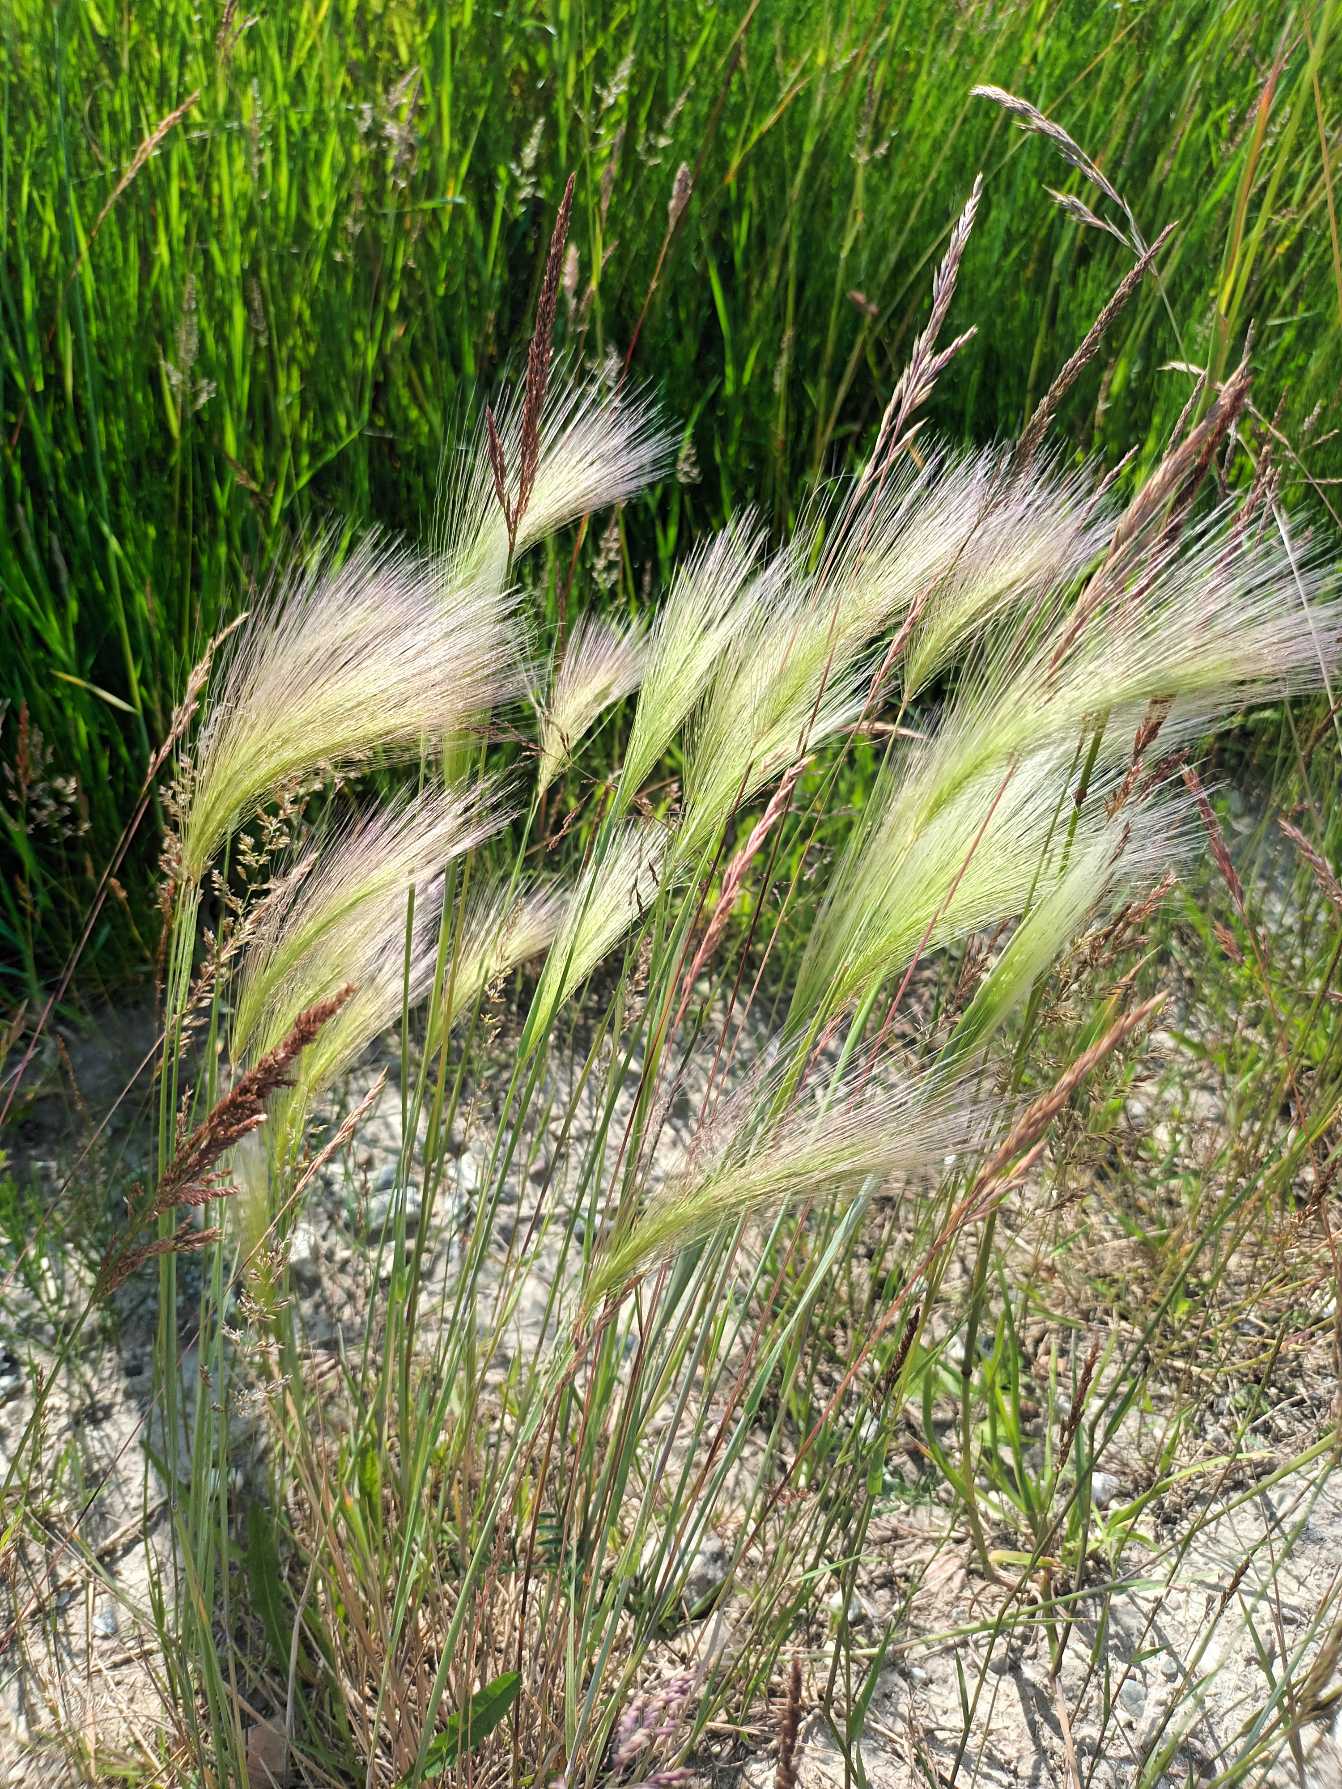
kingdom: Plantae
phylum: Tracheophyta
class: Liliopsida
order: Poales
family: Poaceae
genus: Hordeum
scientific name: Hordeum jubatum
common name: Egernhale-byg
